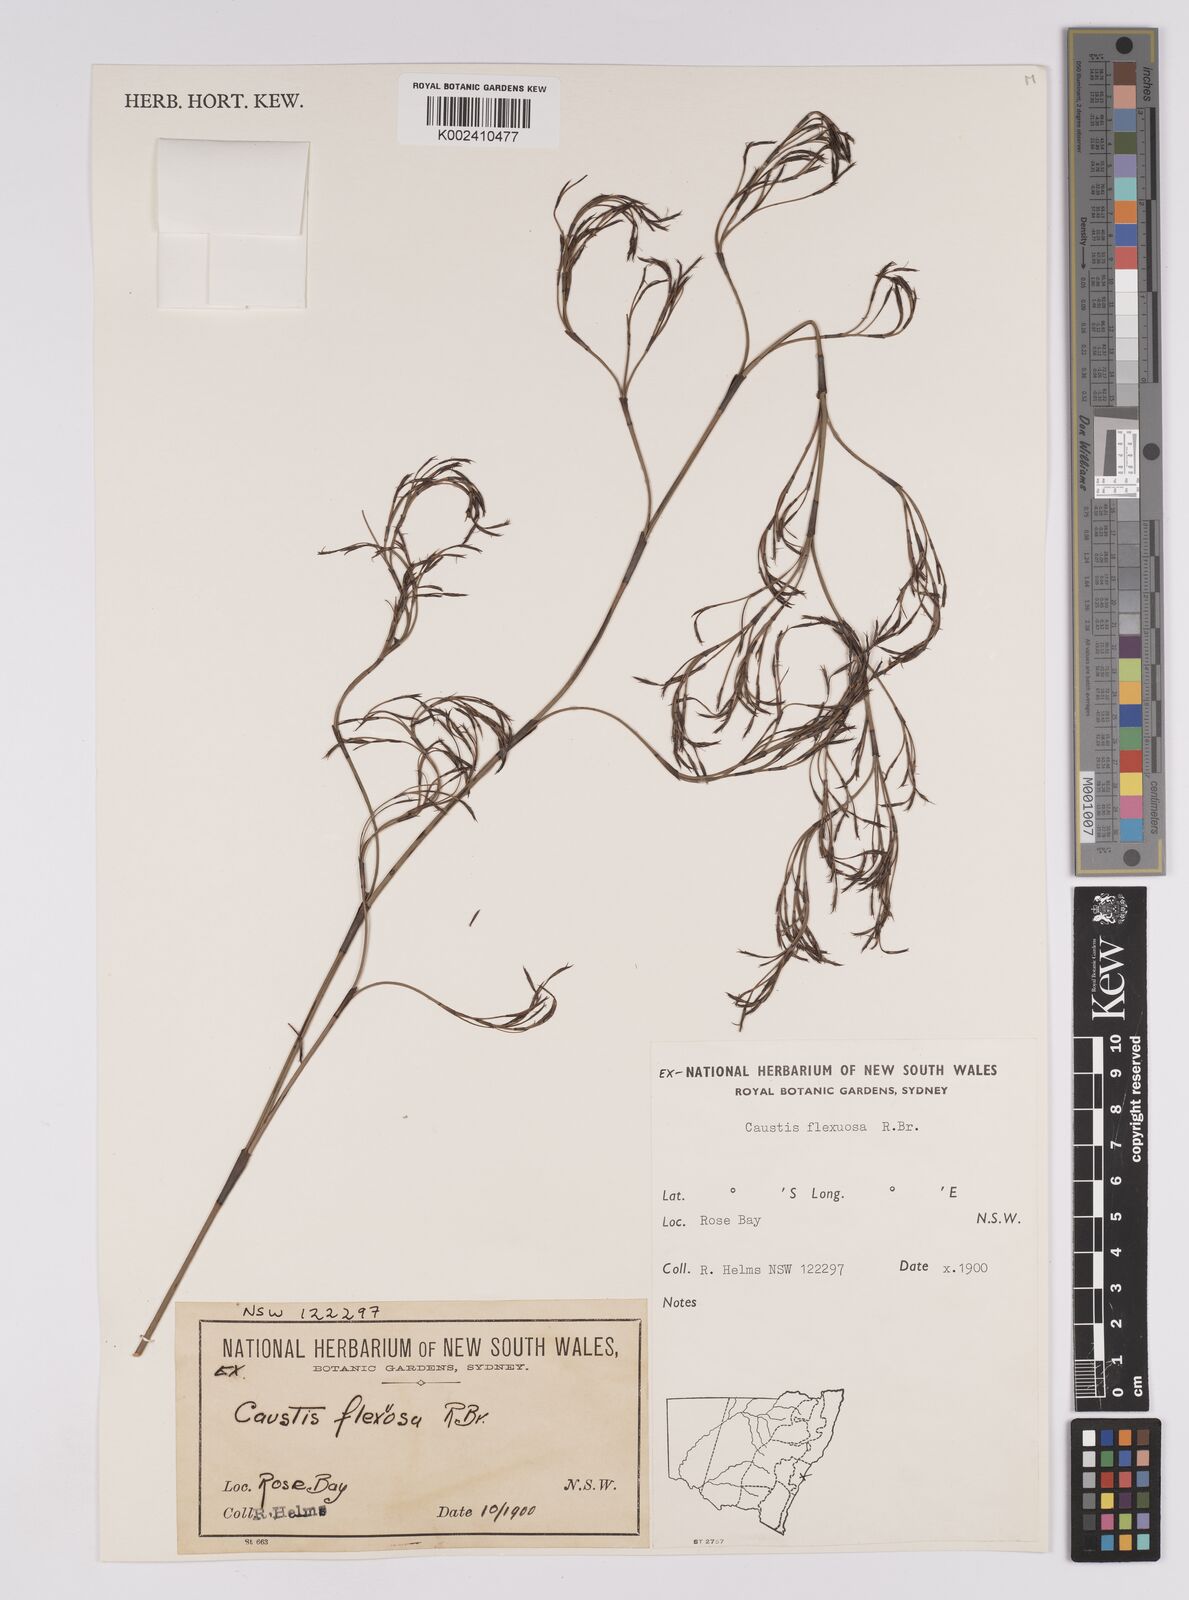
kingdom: Plantae
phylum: Tracheophyta
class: Liliopsida
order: Poales
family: Cyperaceae
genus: Caustis
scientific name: Caustis flexuosa
